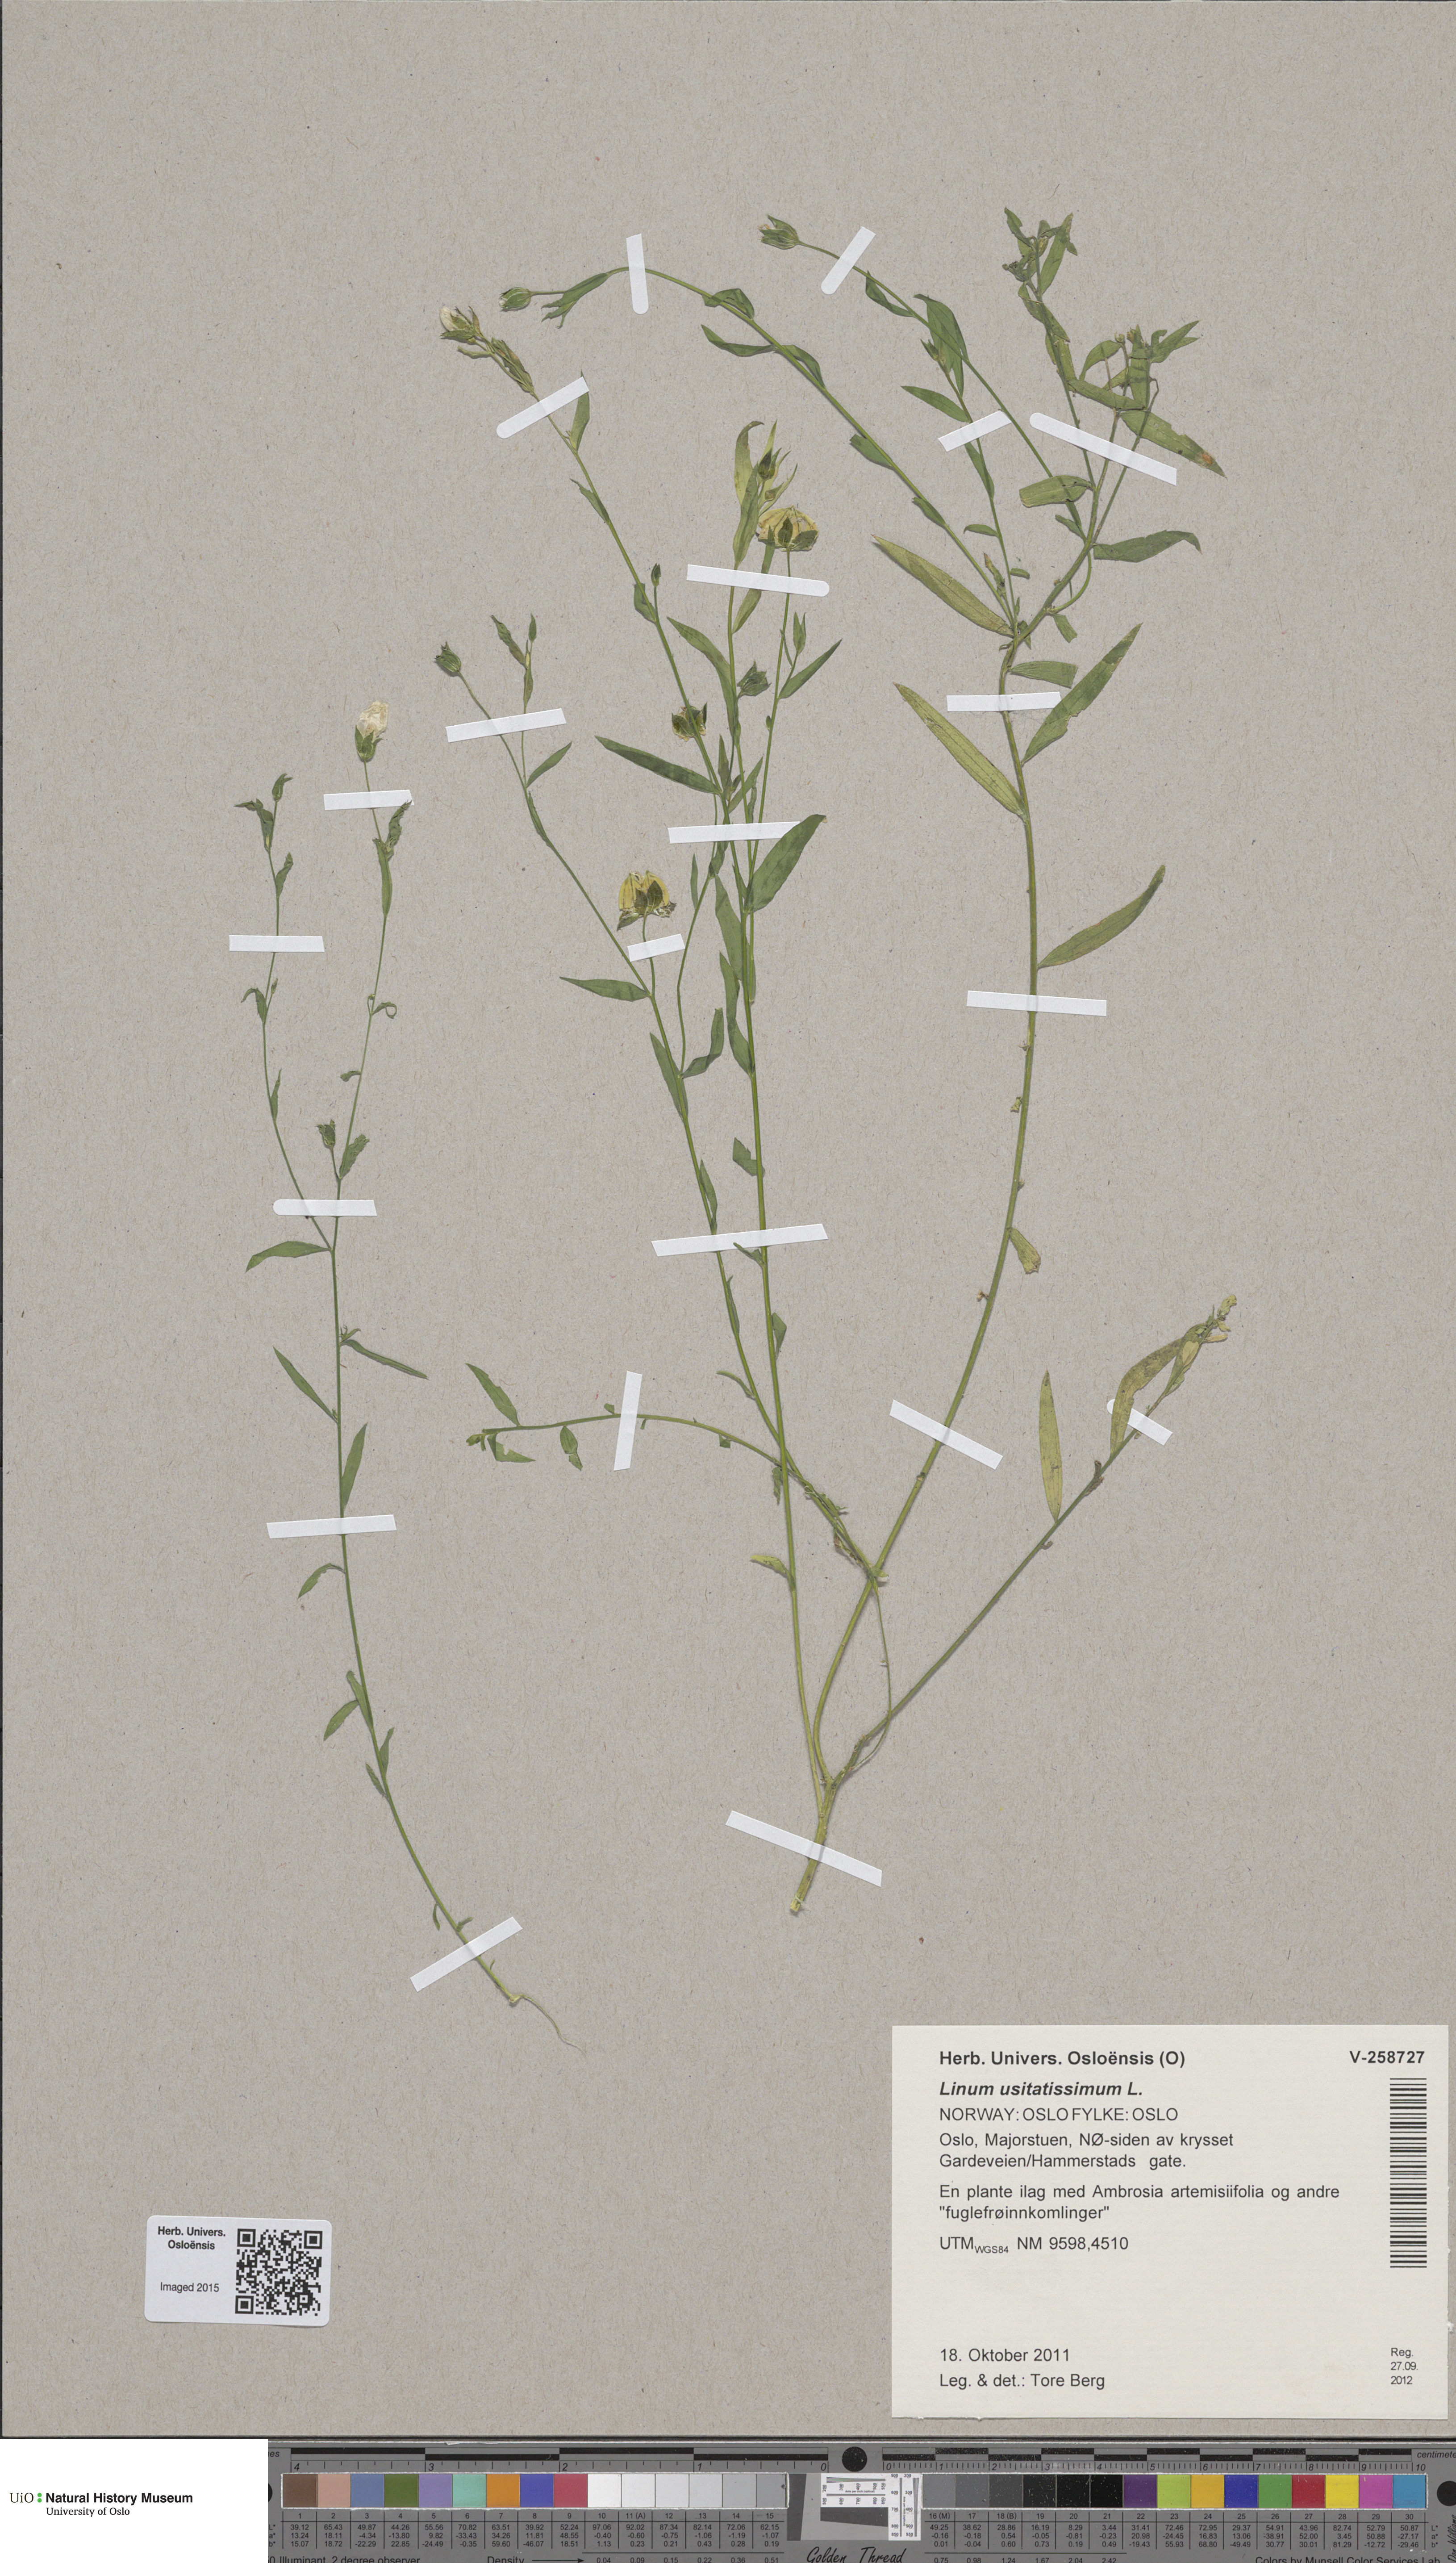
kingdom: Plantae
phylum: Tracheophyta
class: Magnoliopsida
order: Malpighiales
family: Linaceae
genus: Linum
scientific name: Linum usitatissimum
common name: Flax
